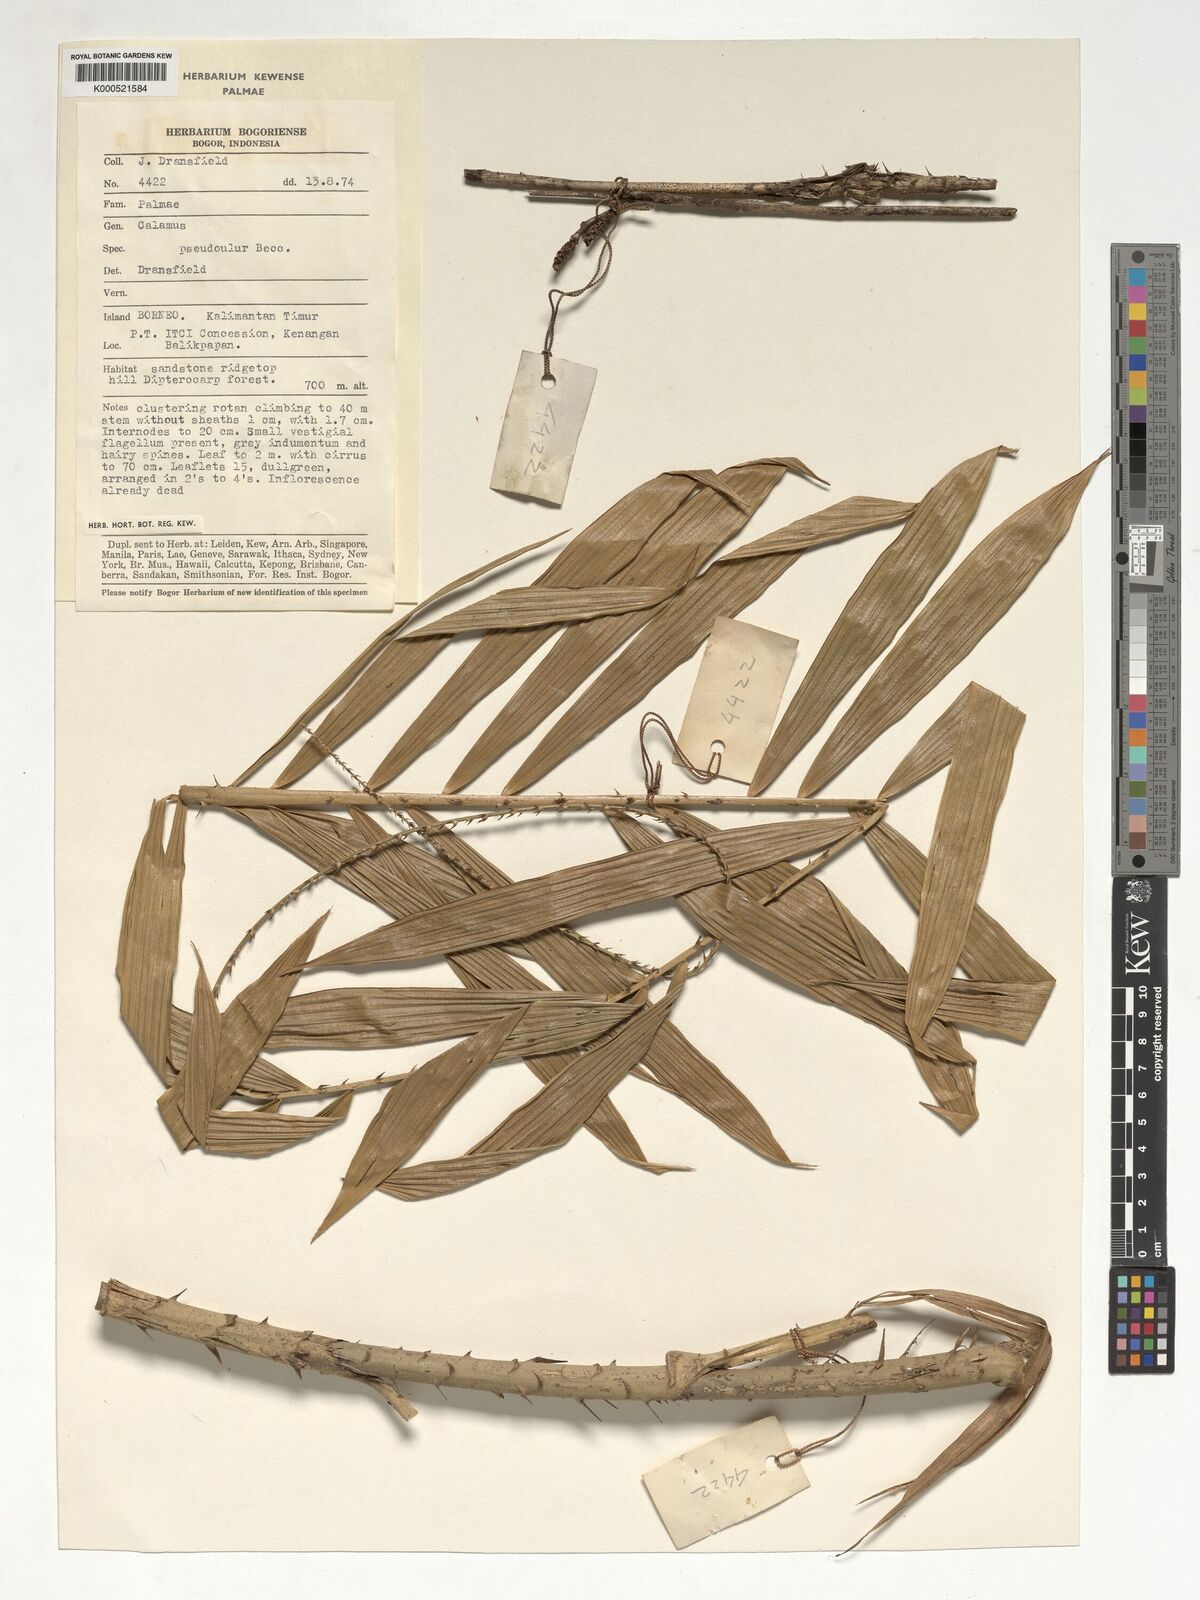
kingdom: Plantae
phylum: Tracheophyta
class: Liliopsida
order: Arecales
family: Arecaceae
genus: Calamus
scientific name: Calamus erioacanthus
